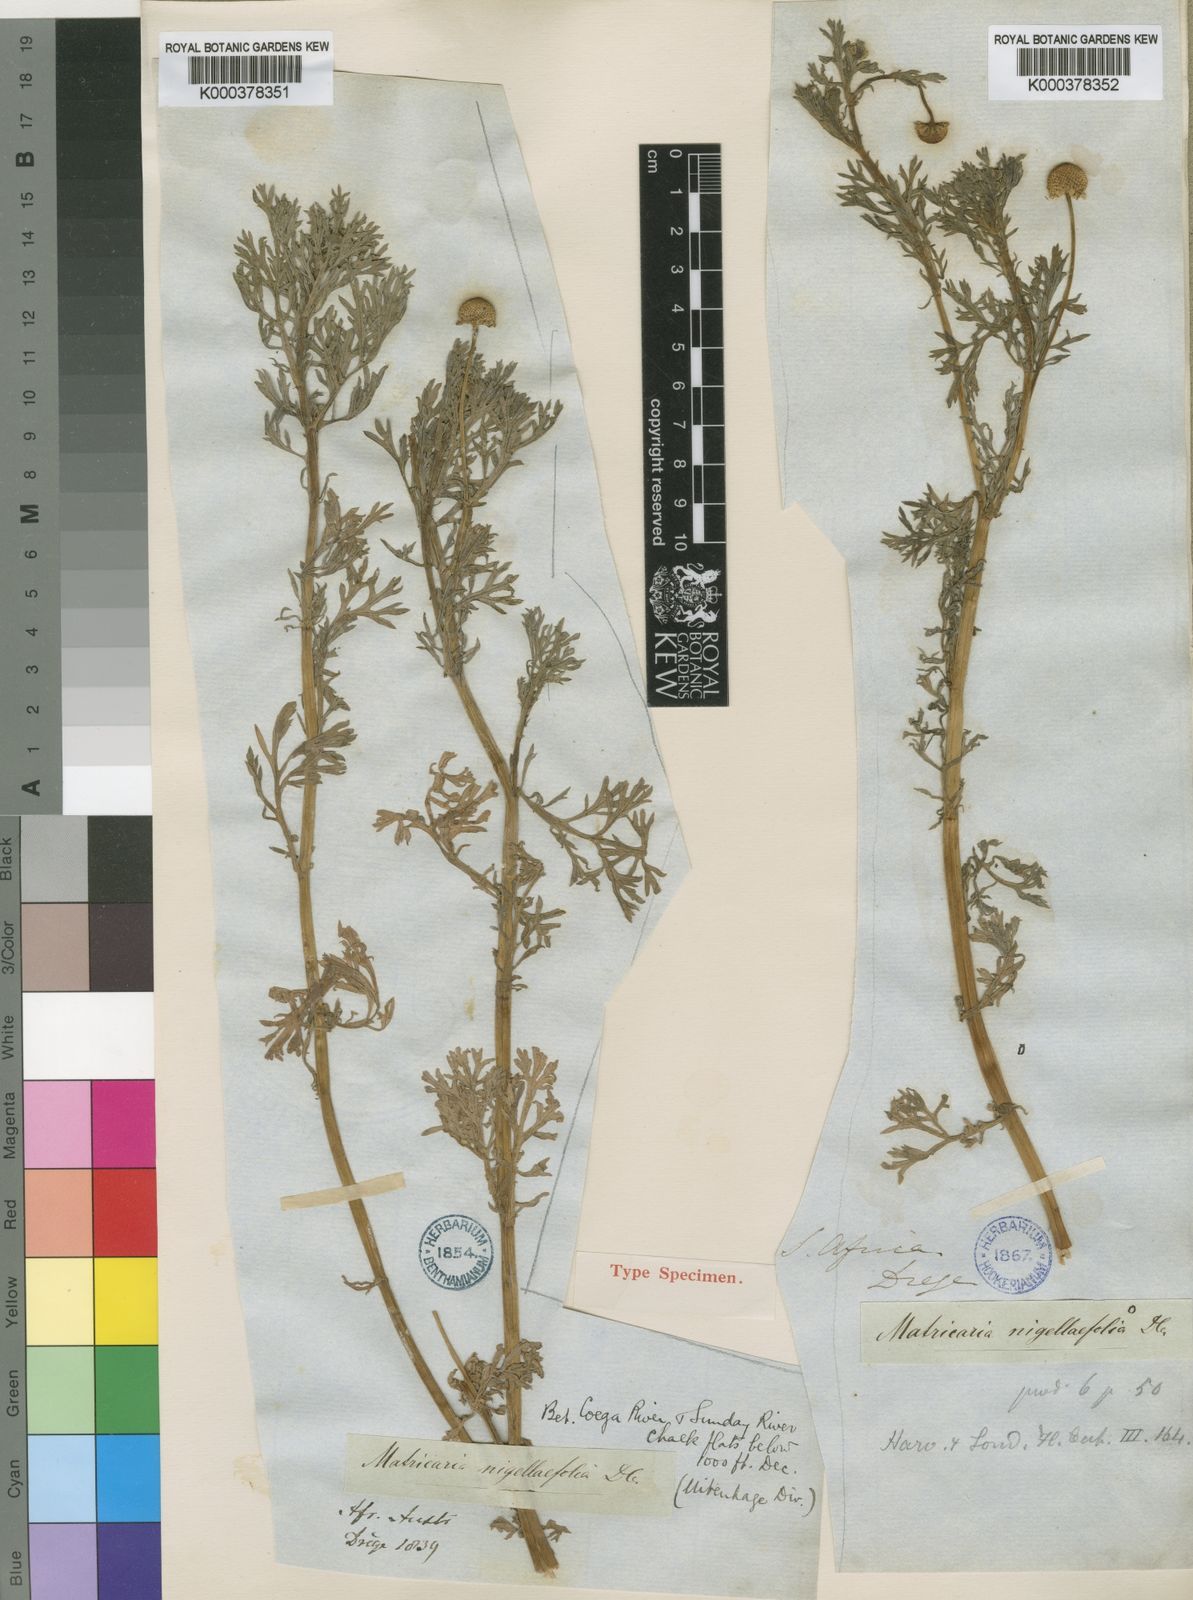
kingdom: Plantae
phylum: Tracheophyta
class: Magnoliopsida
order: Asterales
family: Asteraceae
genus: Cotula
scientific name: Cotula nigellifolia
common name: Staggerweed
